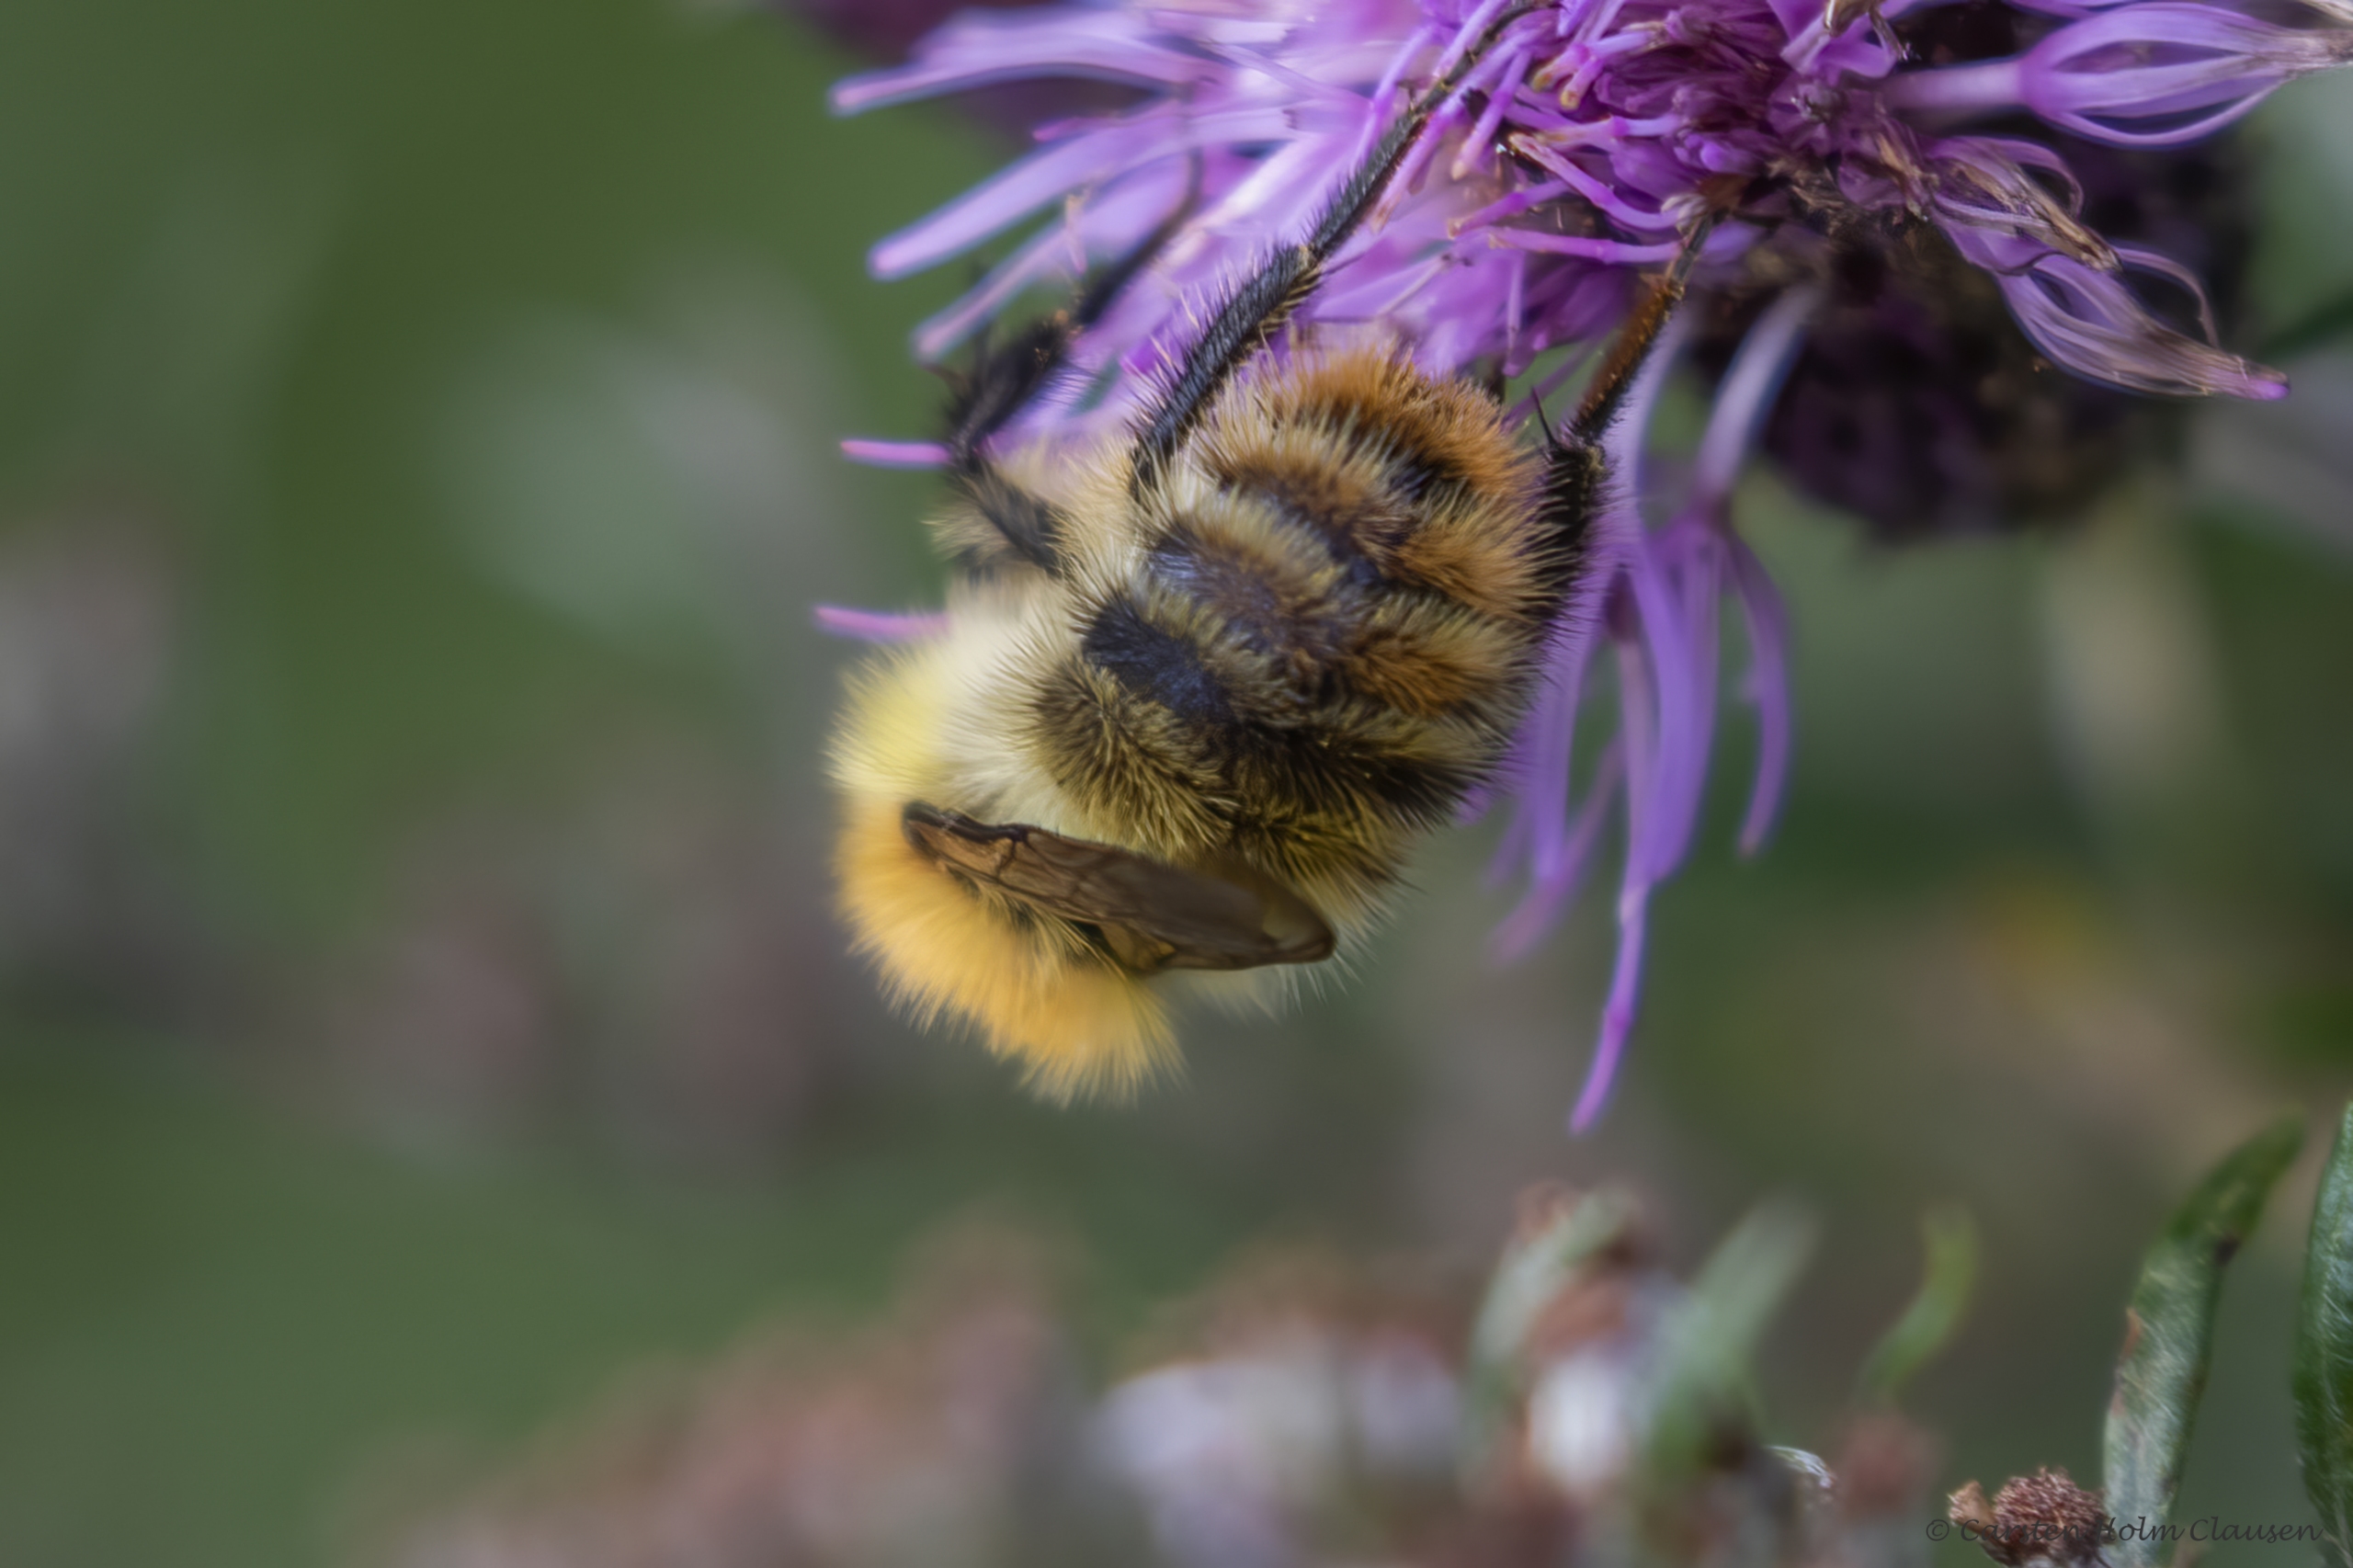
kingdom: Animalia
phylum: Arthropoda
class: Insecta
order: Hymenoptera
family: Apidae
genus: Bombus
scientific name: Bombus pascuorum
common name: Agerhumle
